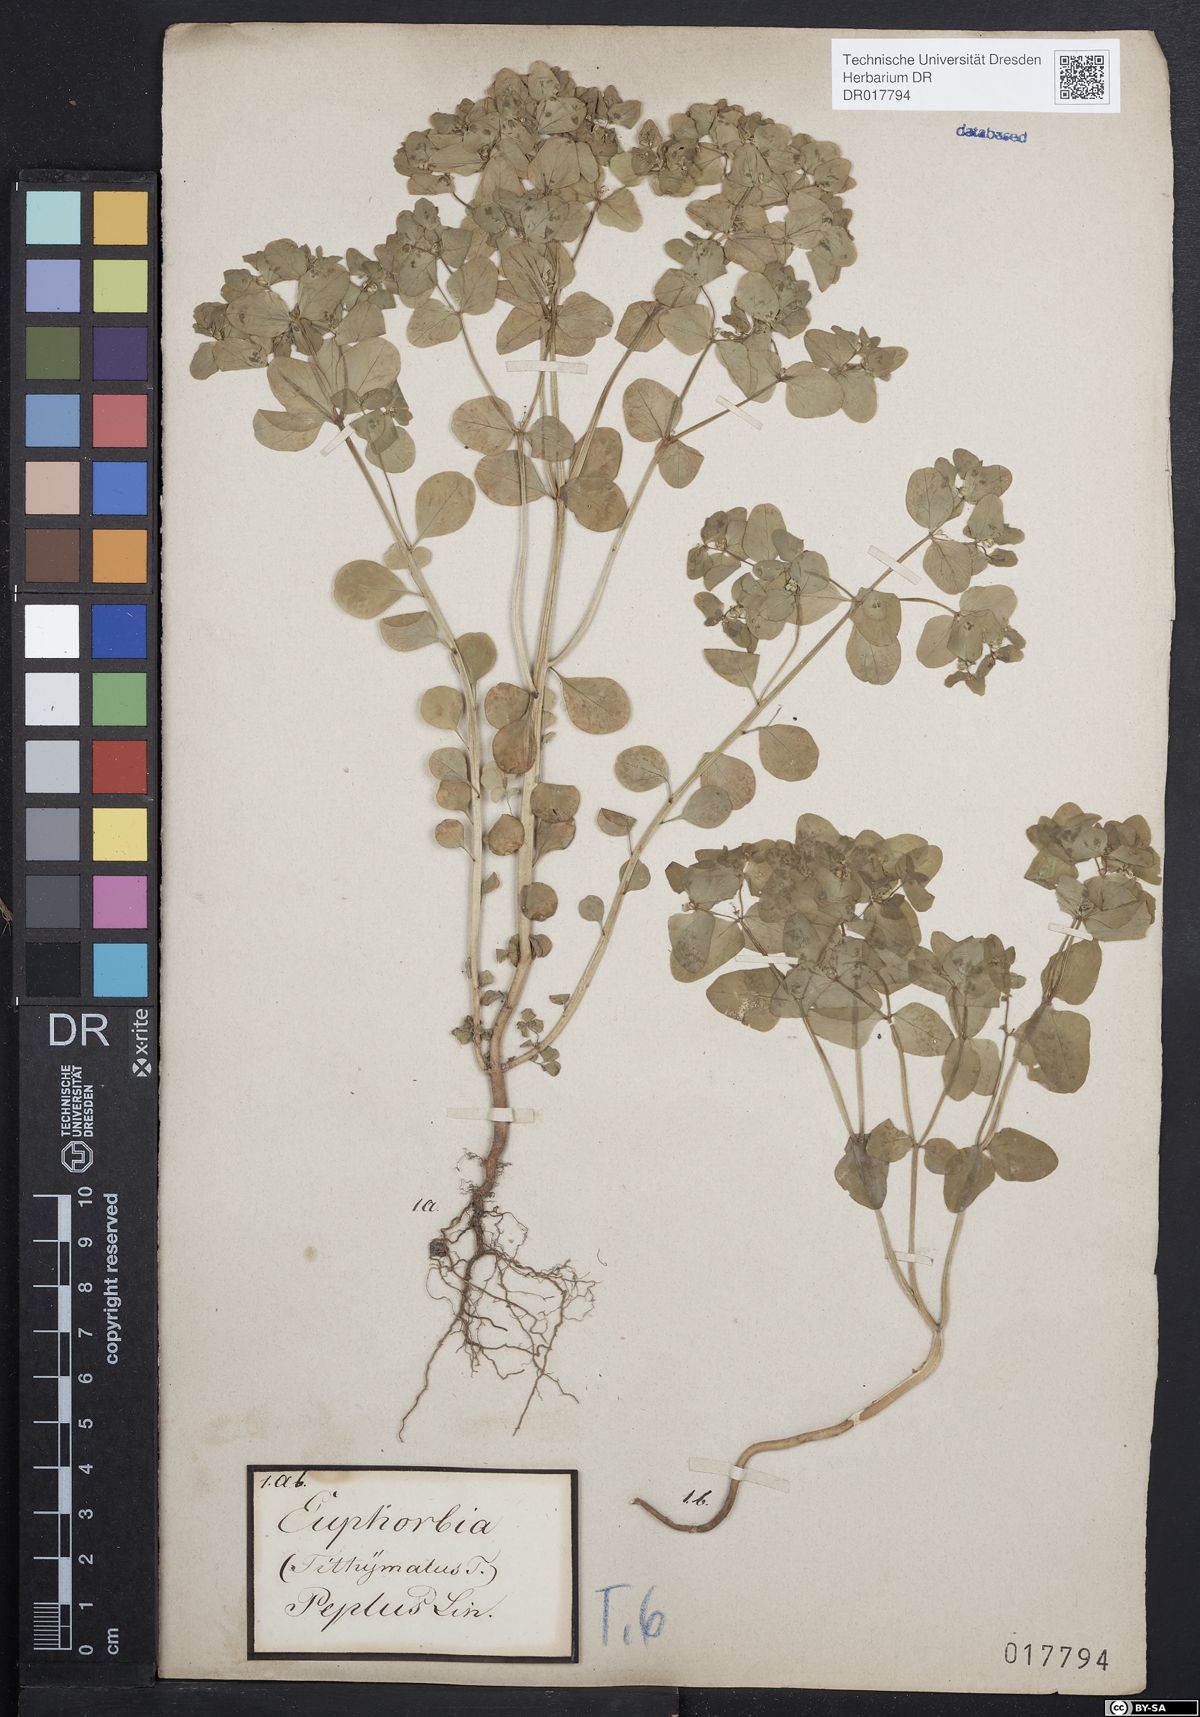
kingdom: Plantae
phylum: Tracheophyta
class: Magnoliopsida
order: Malpighiales
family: Euphorbiaceae
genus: Euphorbia
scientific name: Euphorbia peplus
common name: Petty spurge
